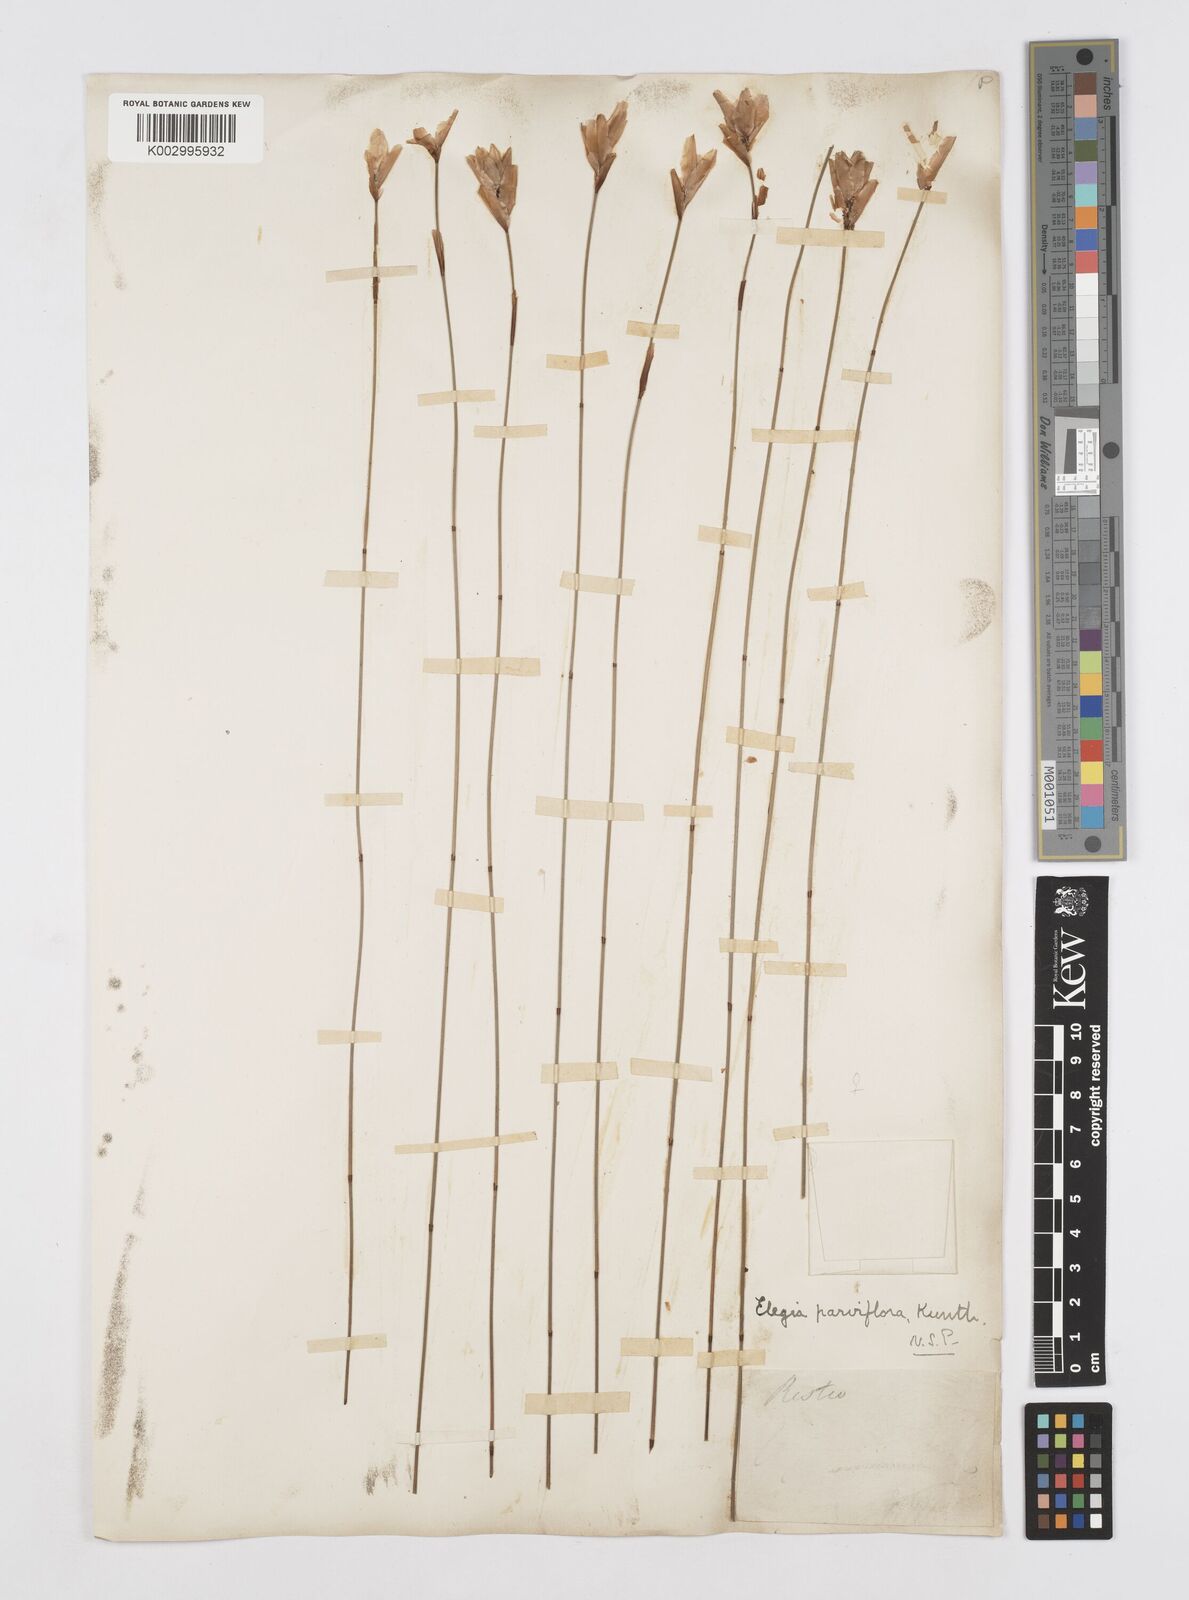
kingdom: Plantae
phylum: Tracheophyta
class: Liliopsida
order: Poales
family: Restionaceae
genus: Cannomois
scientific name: Cannomois parviflora
